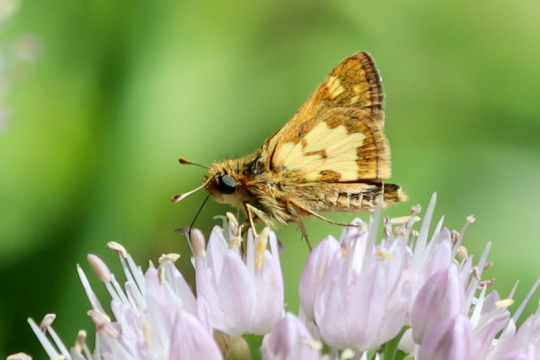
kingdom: Animalia
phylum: Arthropoda
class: Insecta
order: Lepidoptera
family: Hesperiidae
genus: Polites
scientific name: Polites coras
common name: Peck's Skipper
